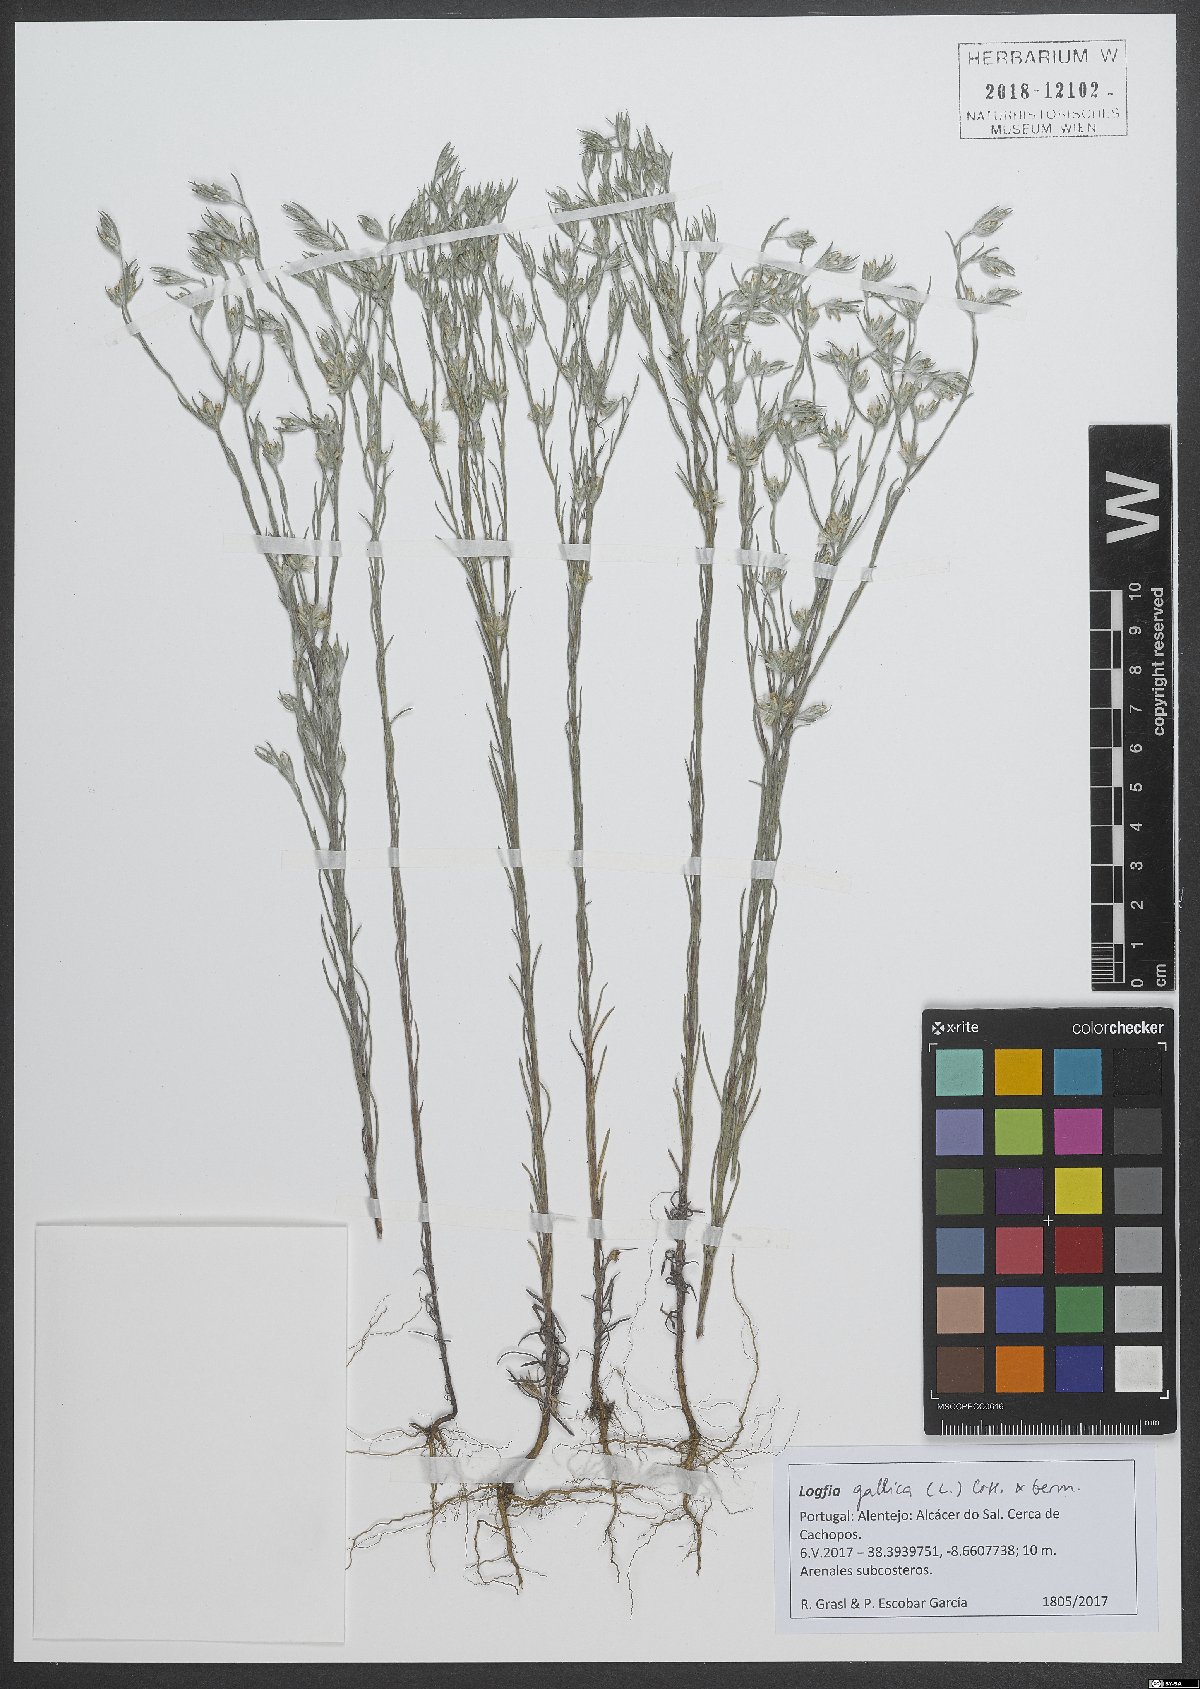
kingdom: Plantae
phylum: Tracheophyta
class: Magnoliopsida
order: Asterales
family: Asteraceae
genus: Logfia
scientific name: Logfia gallica
